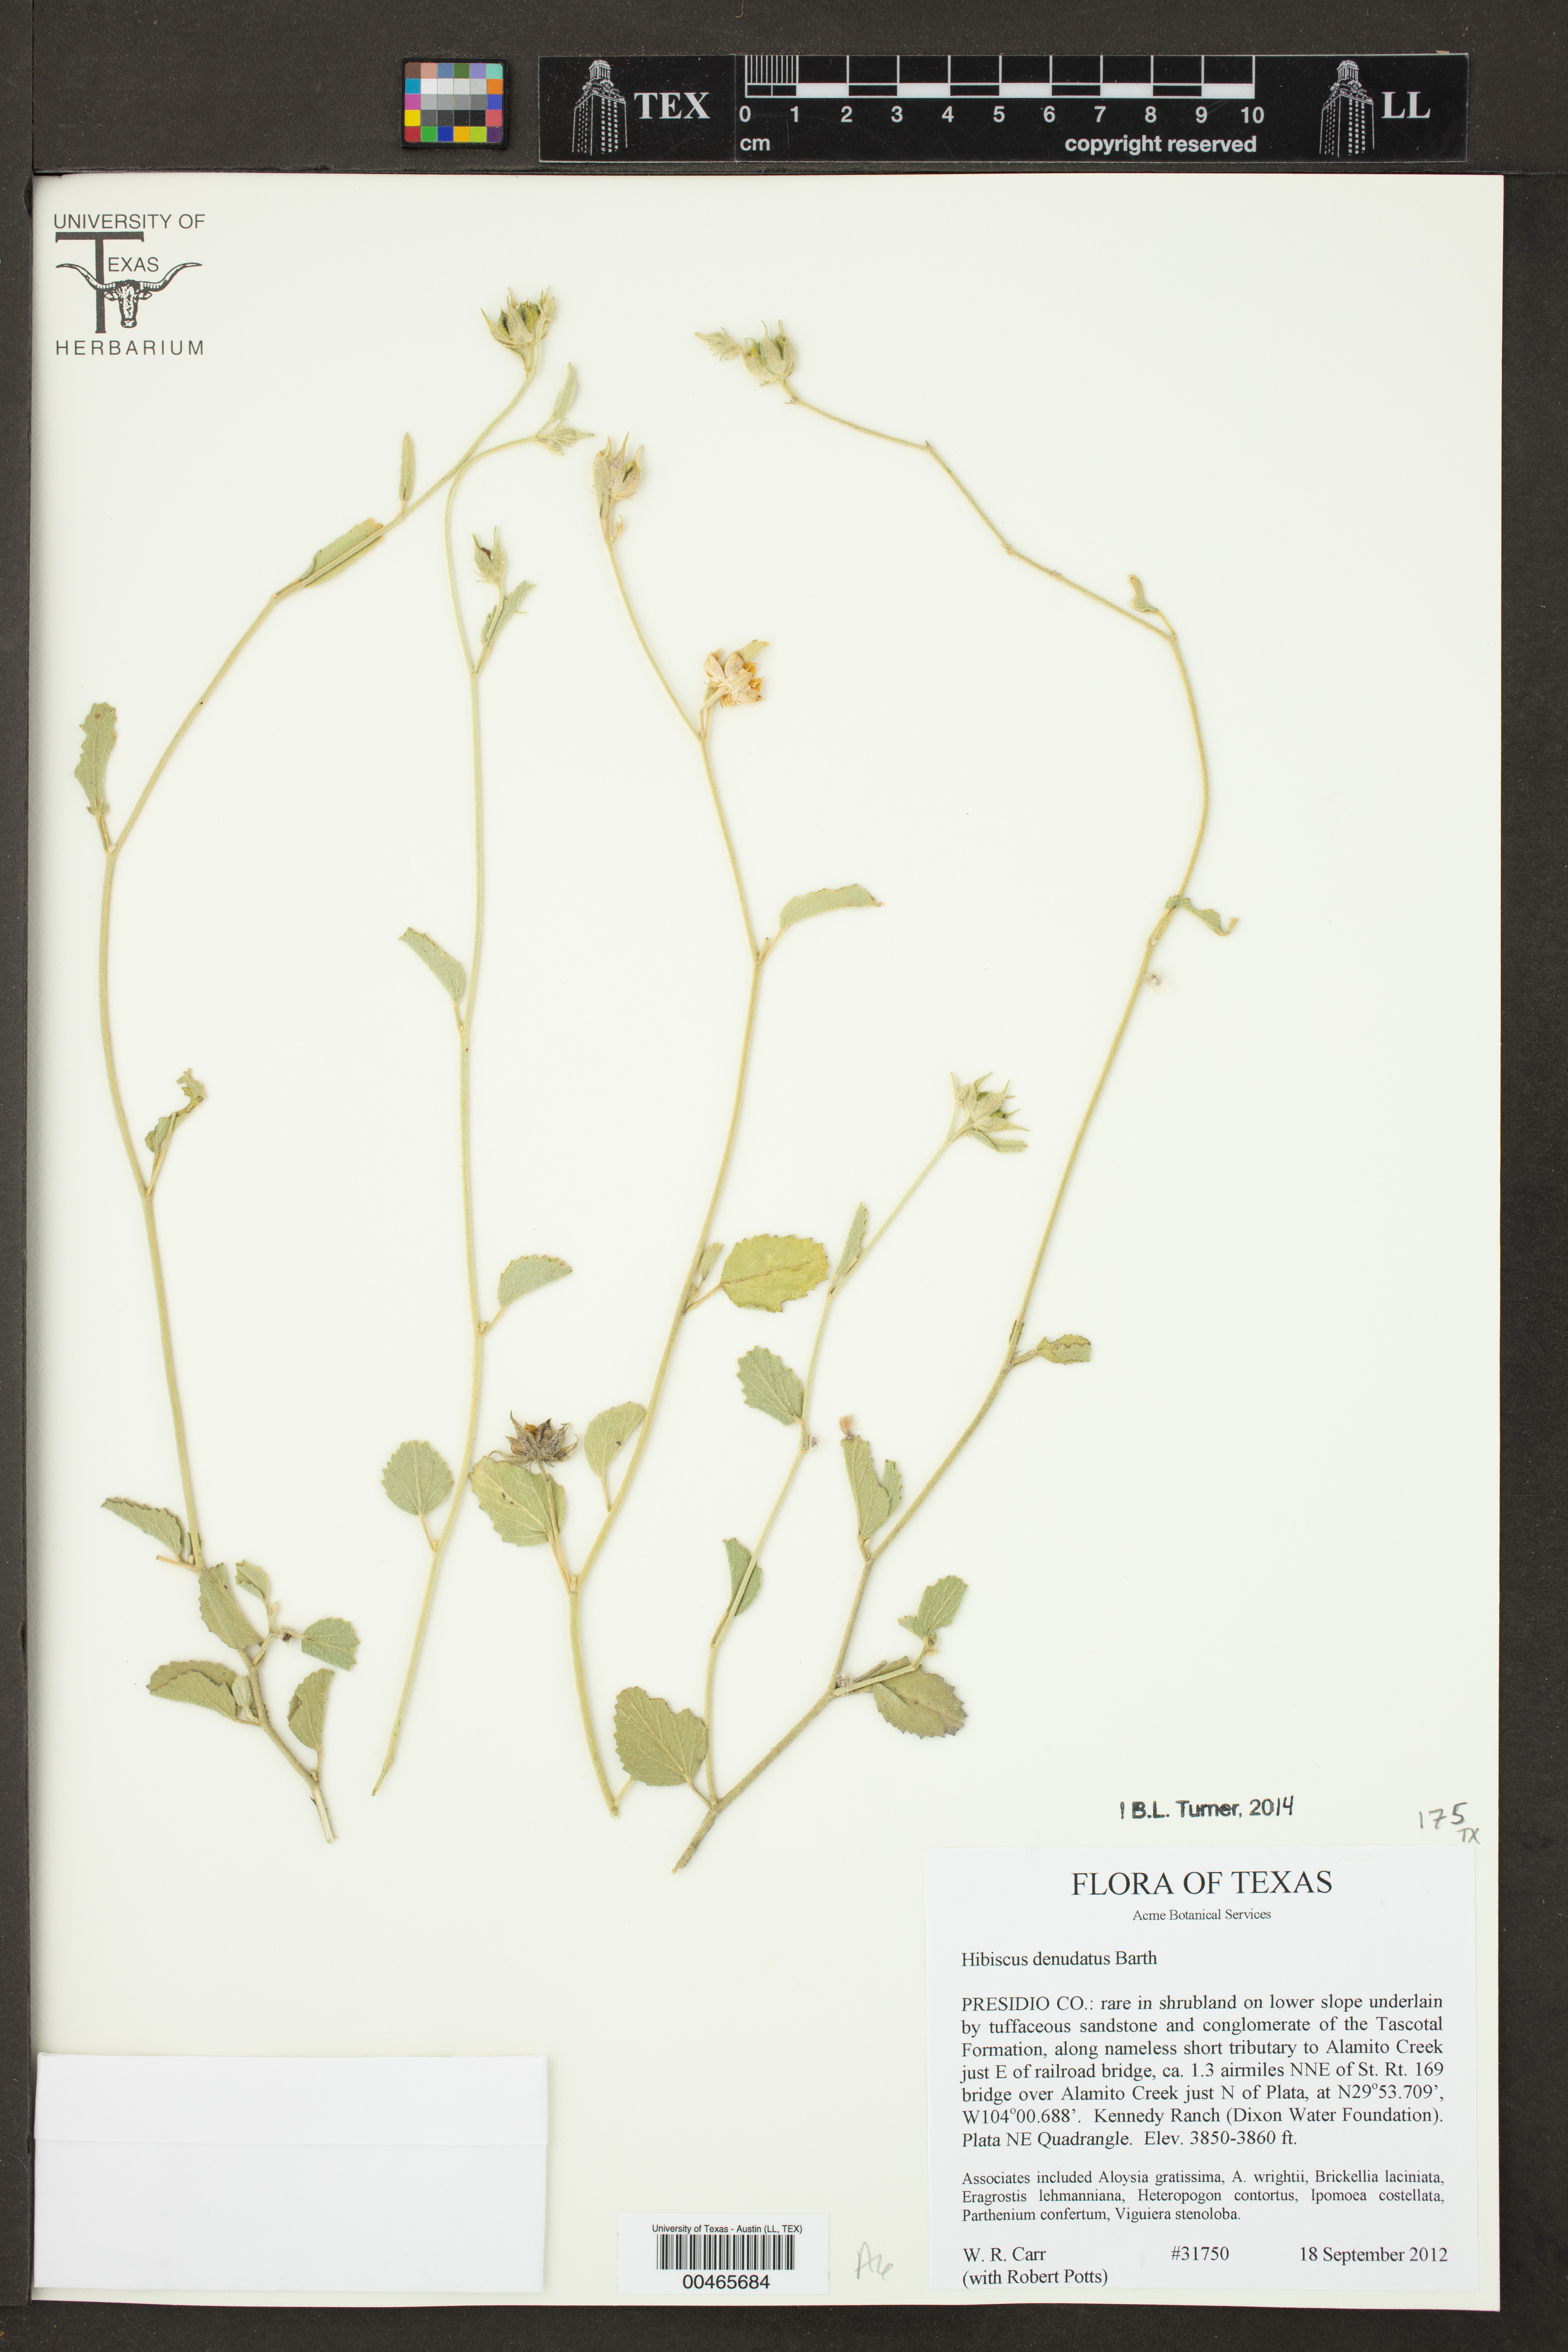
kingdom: Plantae
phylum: Tracheophyta
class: Magnoliopsida
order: Malvales
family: Malvaceae
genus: Hibiscus
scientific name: Hibiscus denudatus
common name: Paleface
